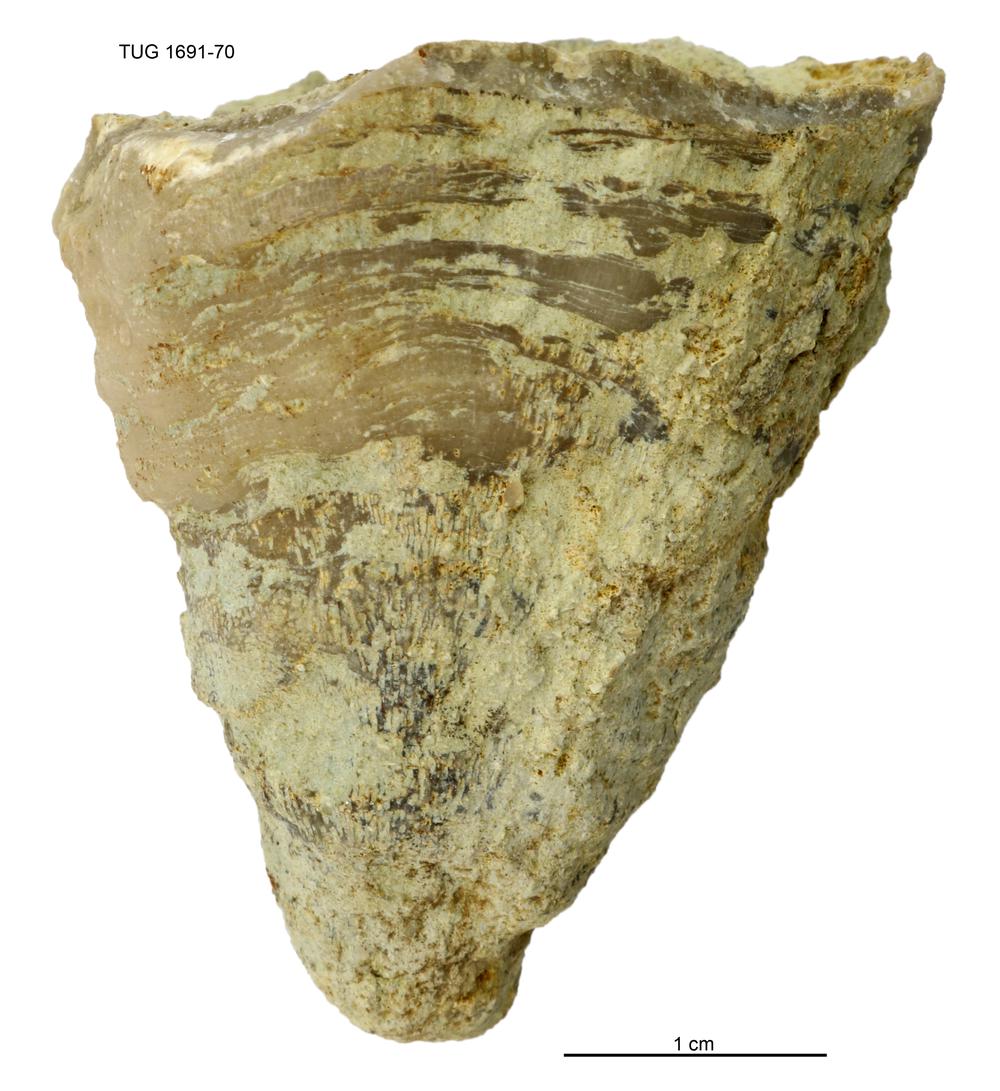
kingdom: Animalia
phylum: Bryozoa
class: Stenolaemata
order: Trepostomatida
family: Dianulitidae
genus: Dianulites
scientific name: Dianulites fastigiatus
